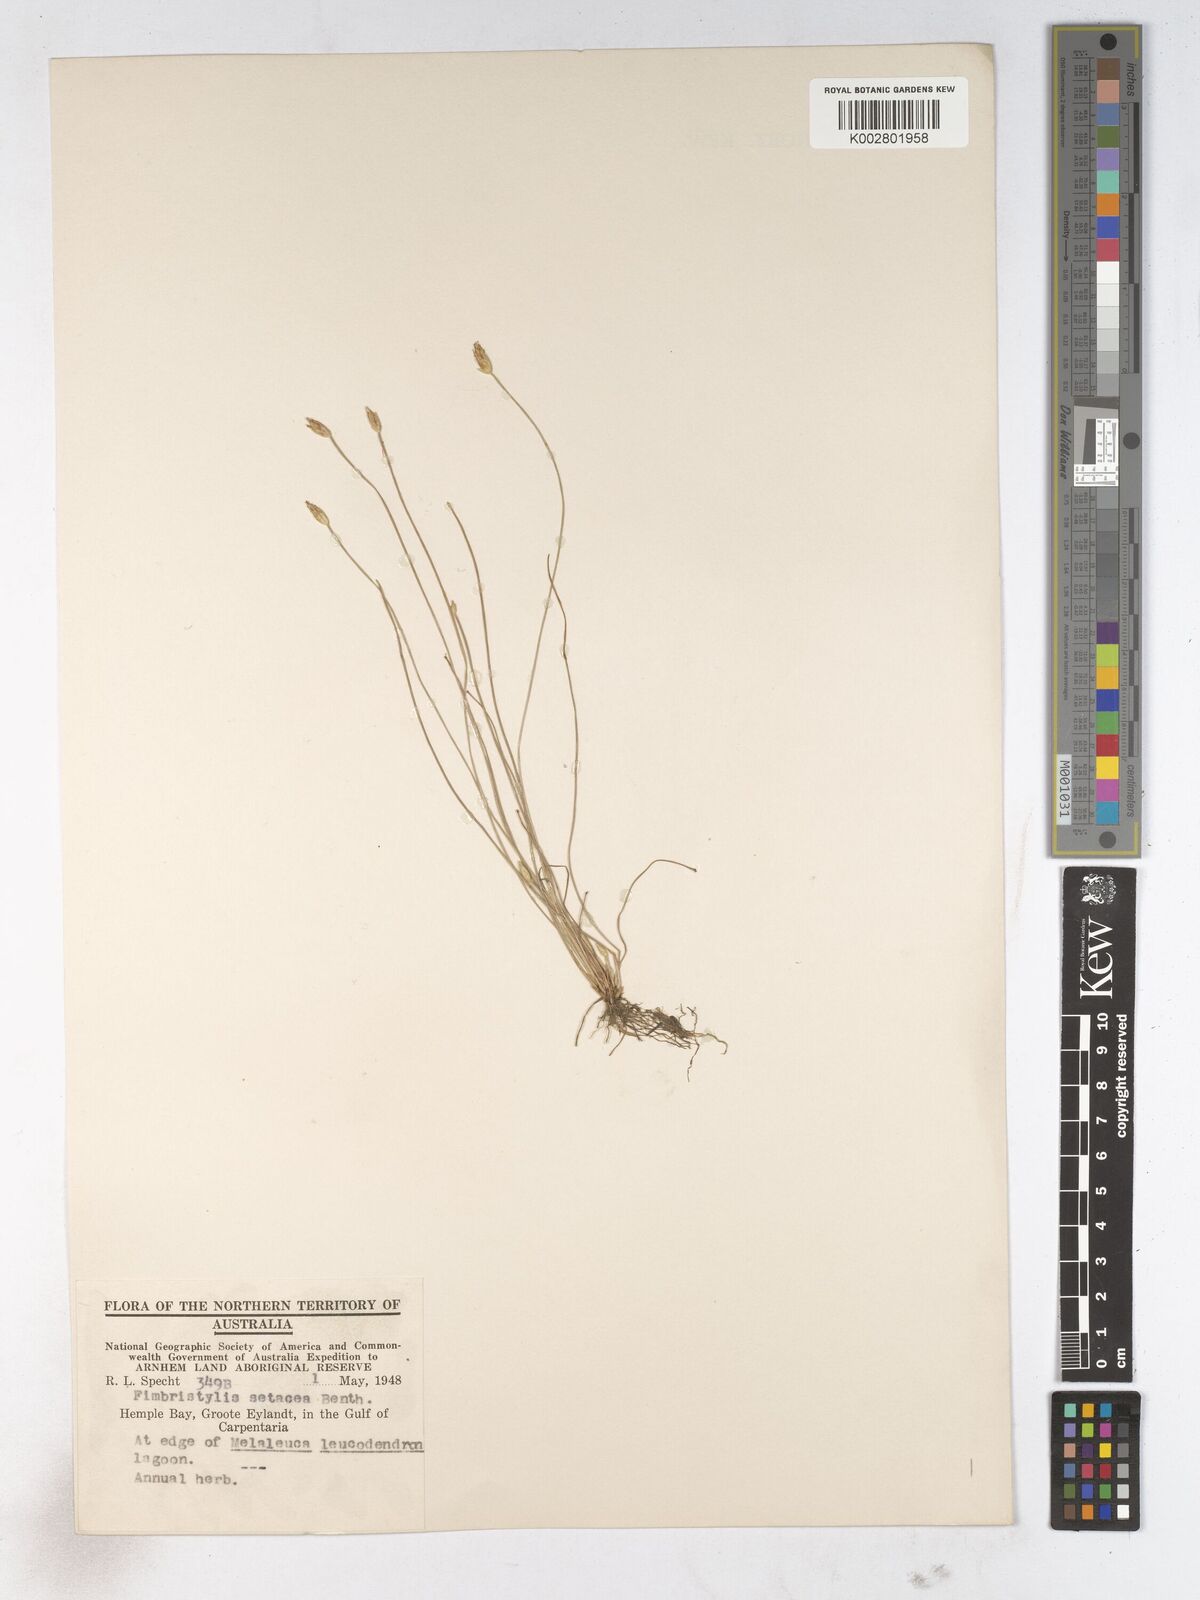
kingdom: Plantae
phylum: Tracheophyta
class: Liliopsida
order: Poales
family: Cyperaceae
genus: Fimbristylis
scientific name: Fimbristylis acicularis
